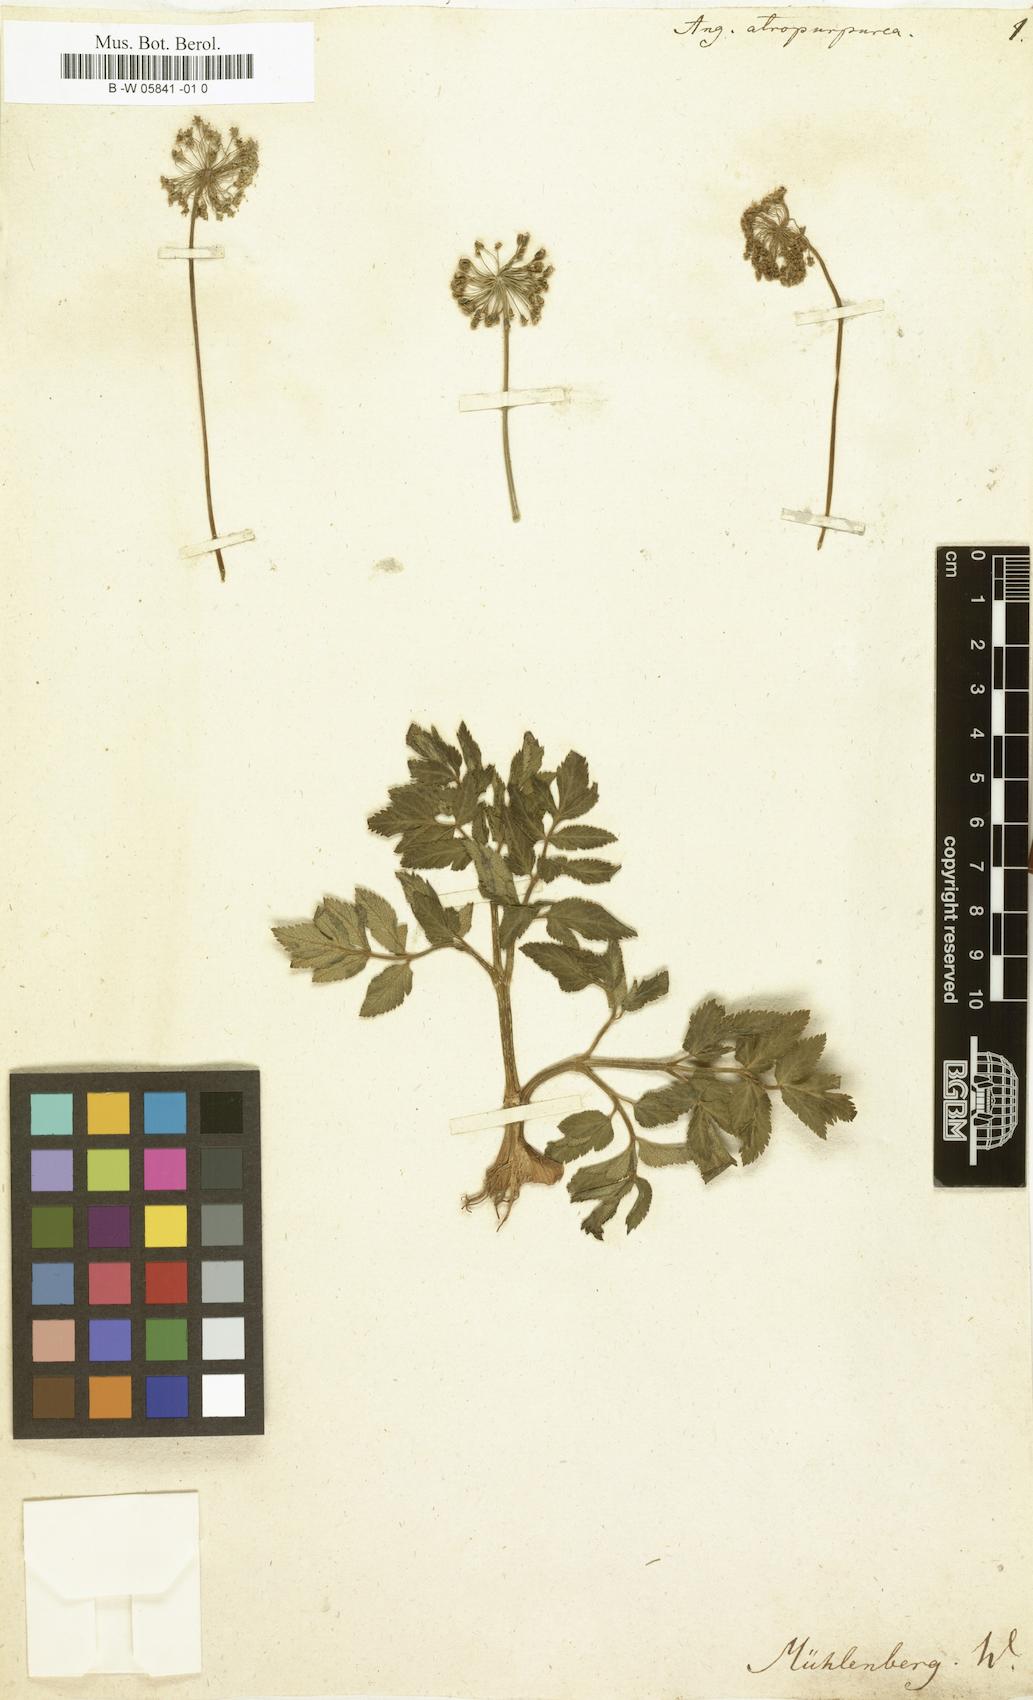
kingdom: Plantae
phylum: Tracheophyta
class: Magnoliopsida
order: Apiales
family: Apiaceae
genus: Angelica
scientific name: Angelica atropurpurea
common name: Great angelica
